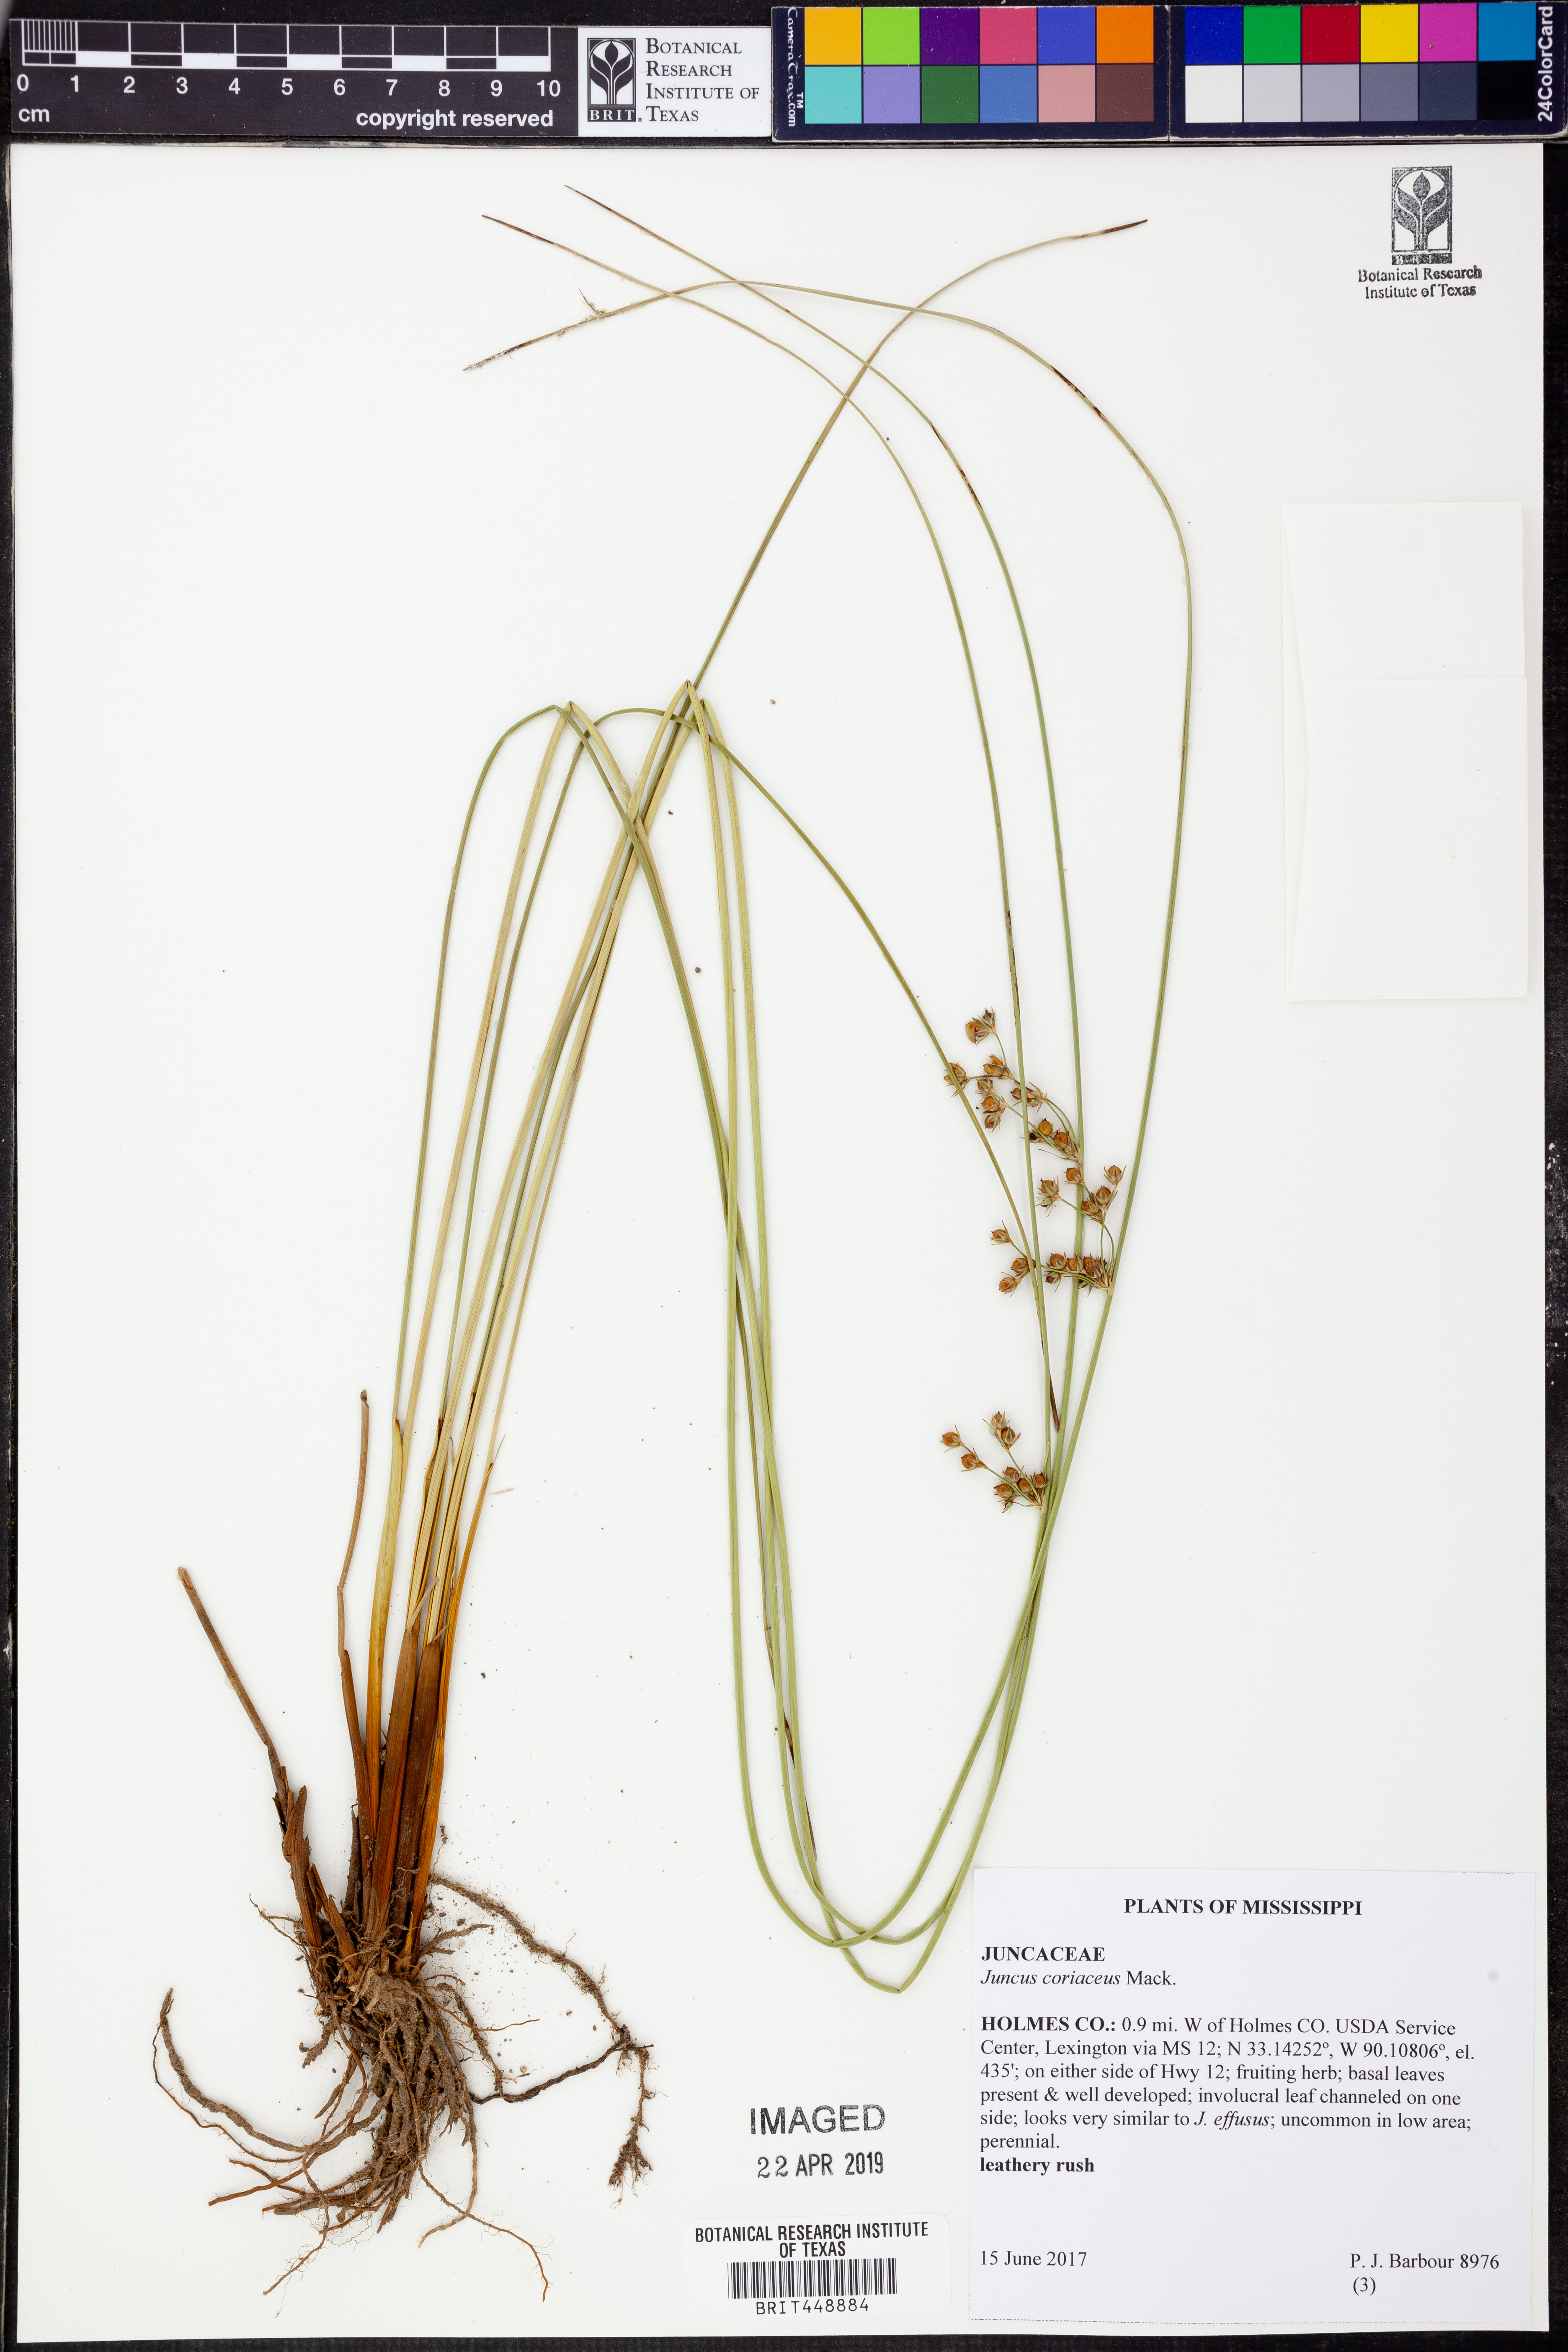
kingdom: Plantae
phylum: Tracheophyta
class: Liliopsida
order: Poales
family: Juncaceae
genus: Juncus
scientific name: Juncus coriaceus
